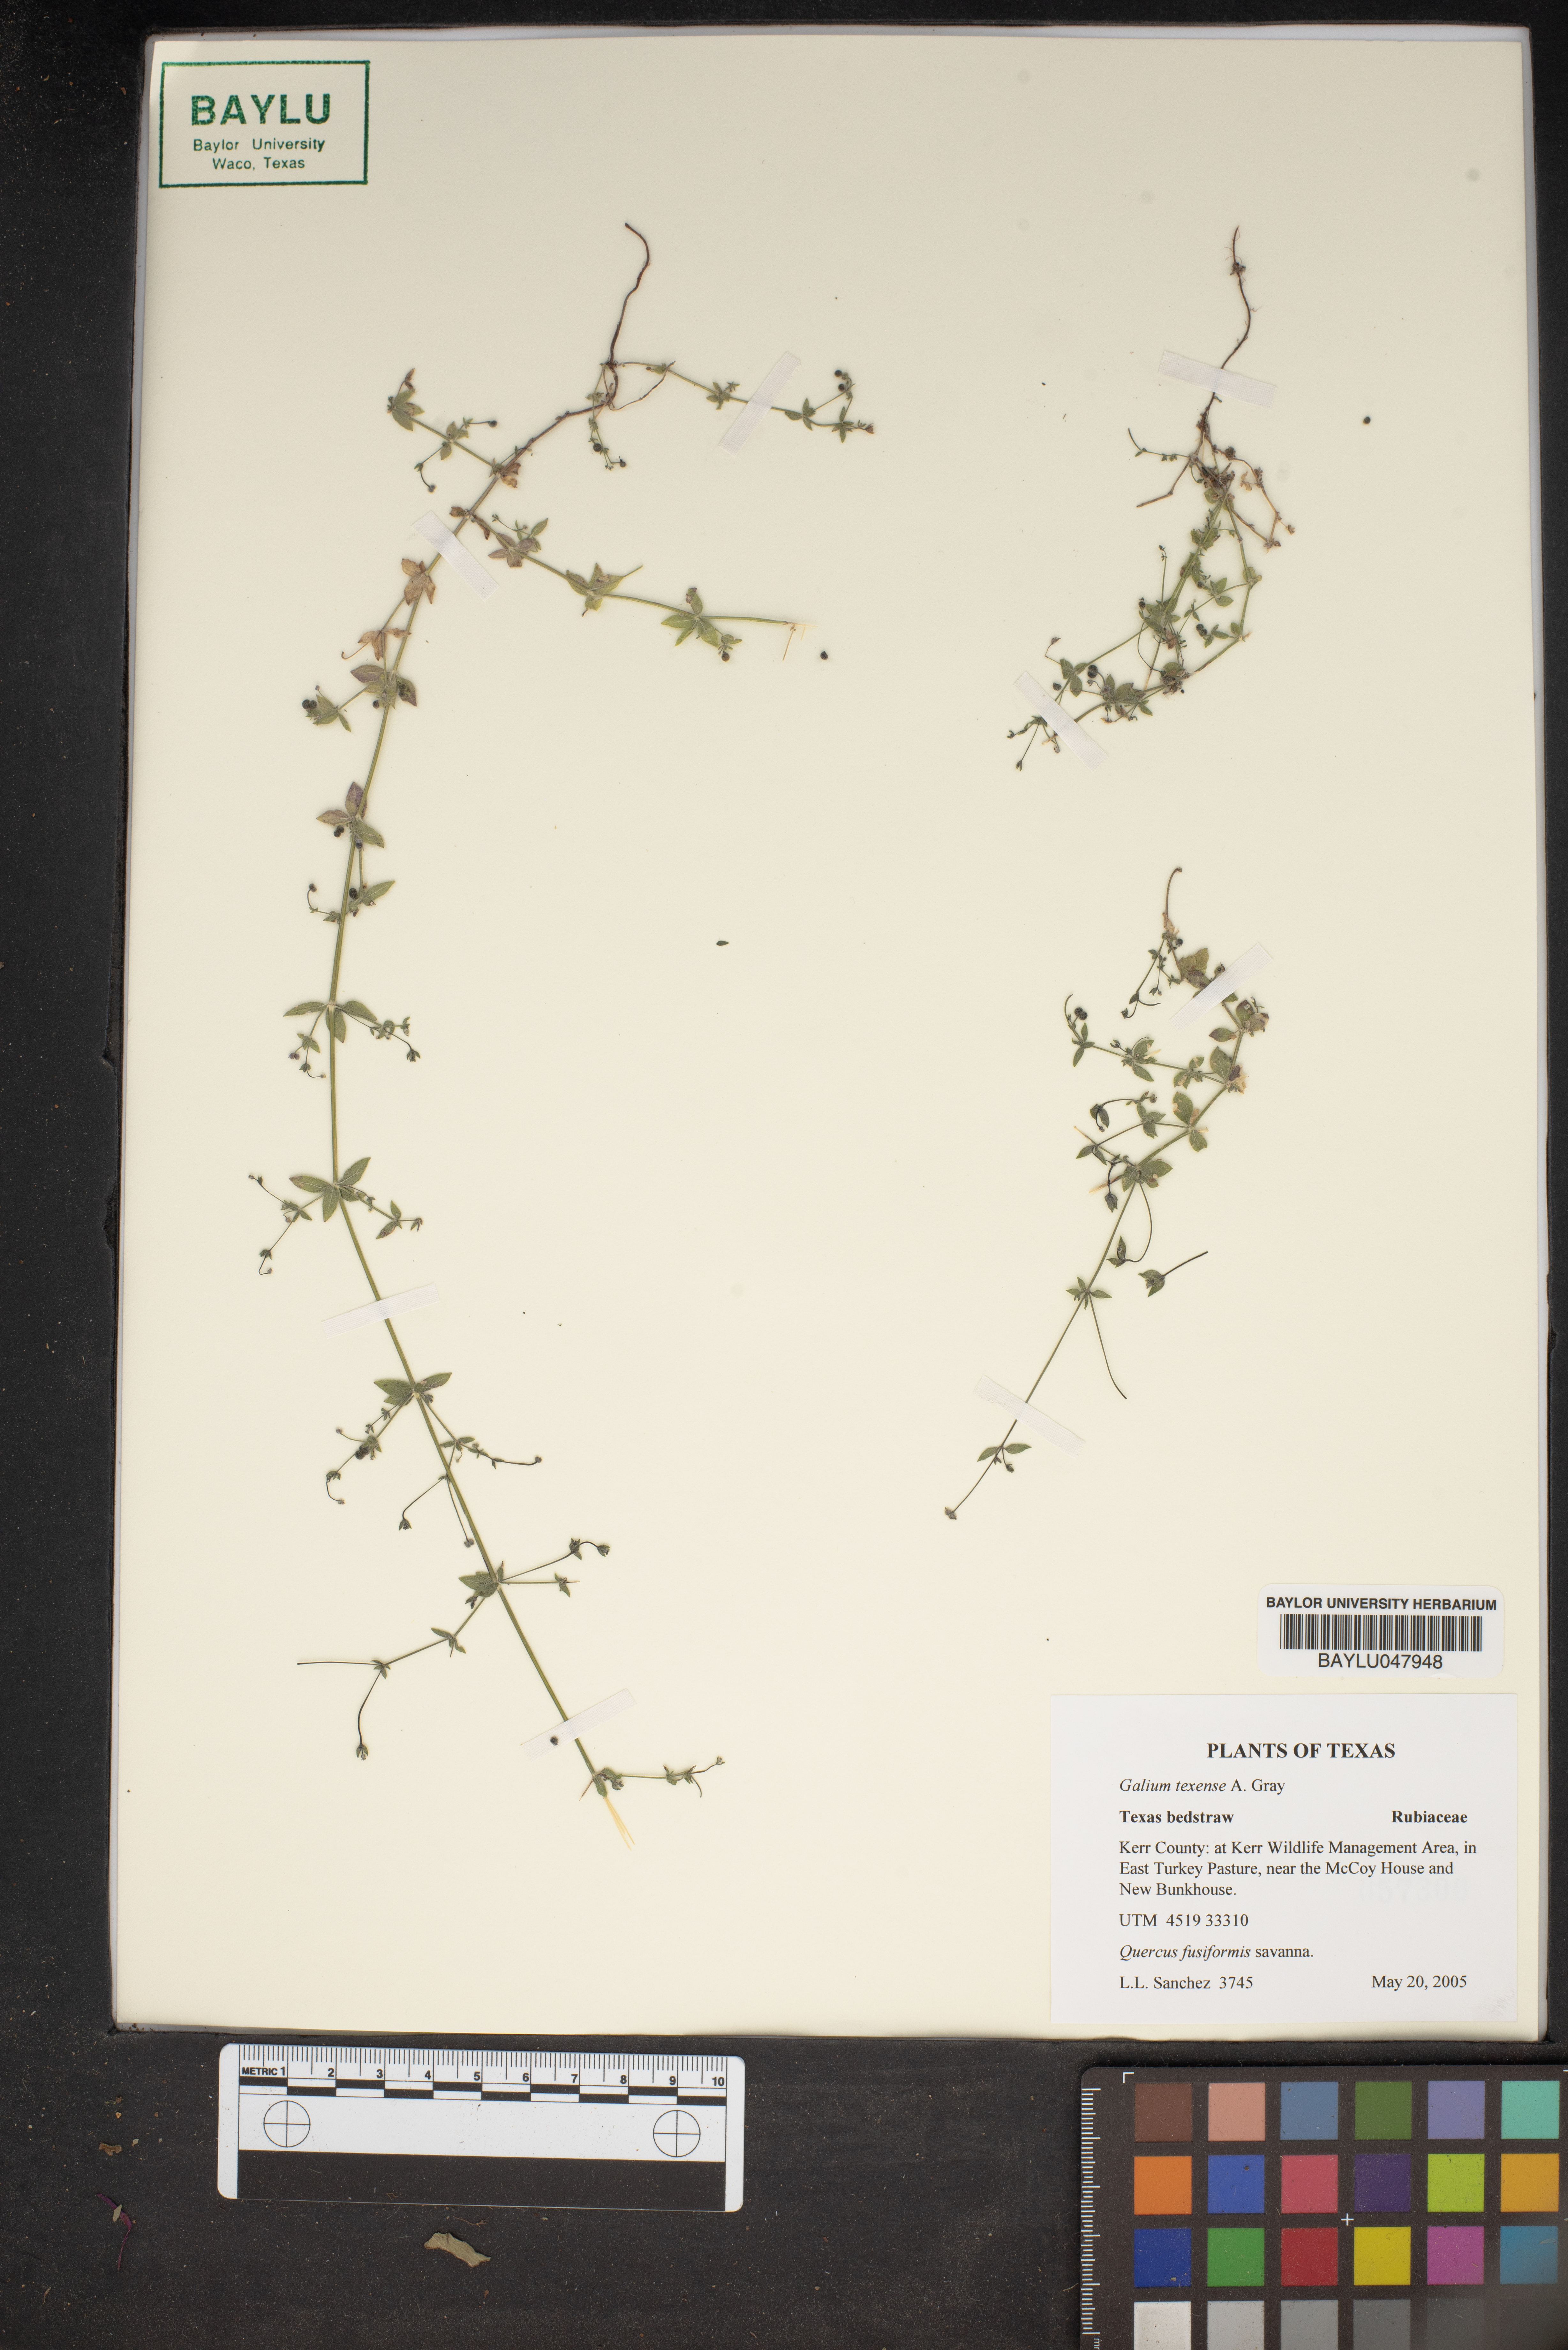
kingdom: Plantae
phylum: Tracheophyta
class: Magnoliopsida
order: Gentianales
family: Rubiaceae
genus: Galium
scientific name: Galium texense
